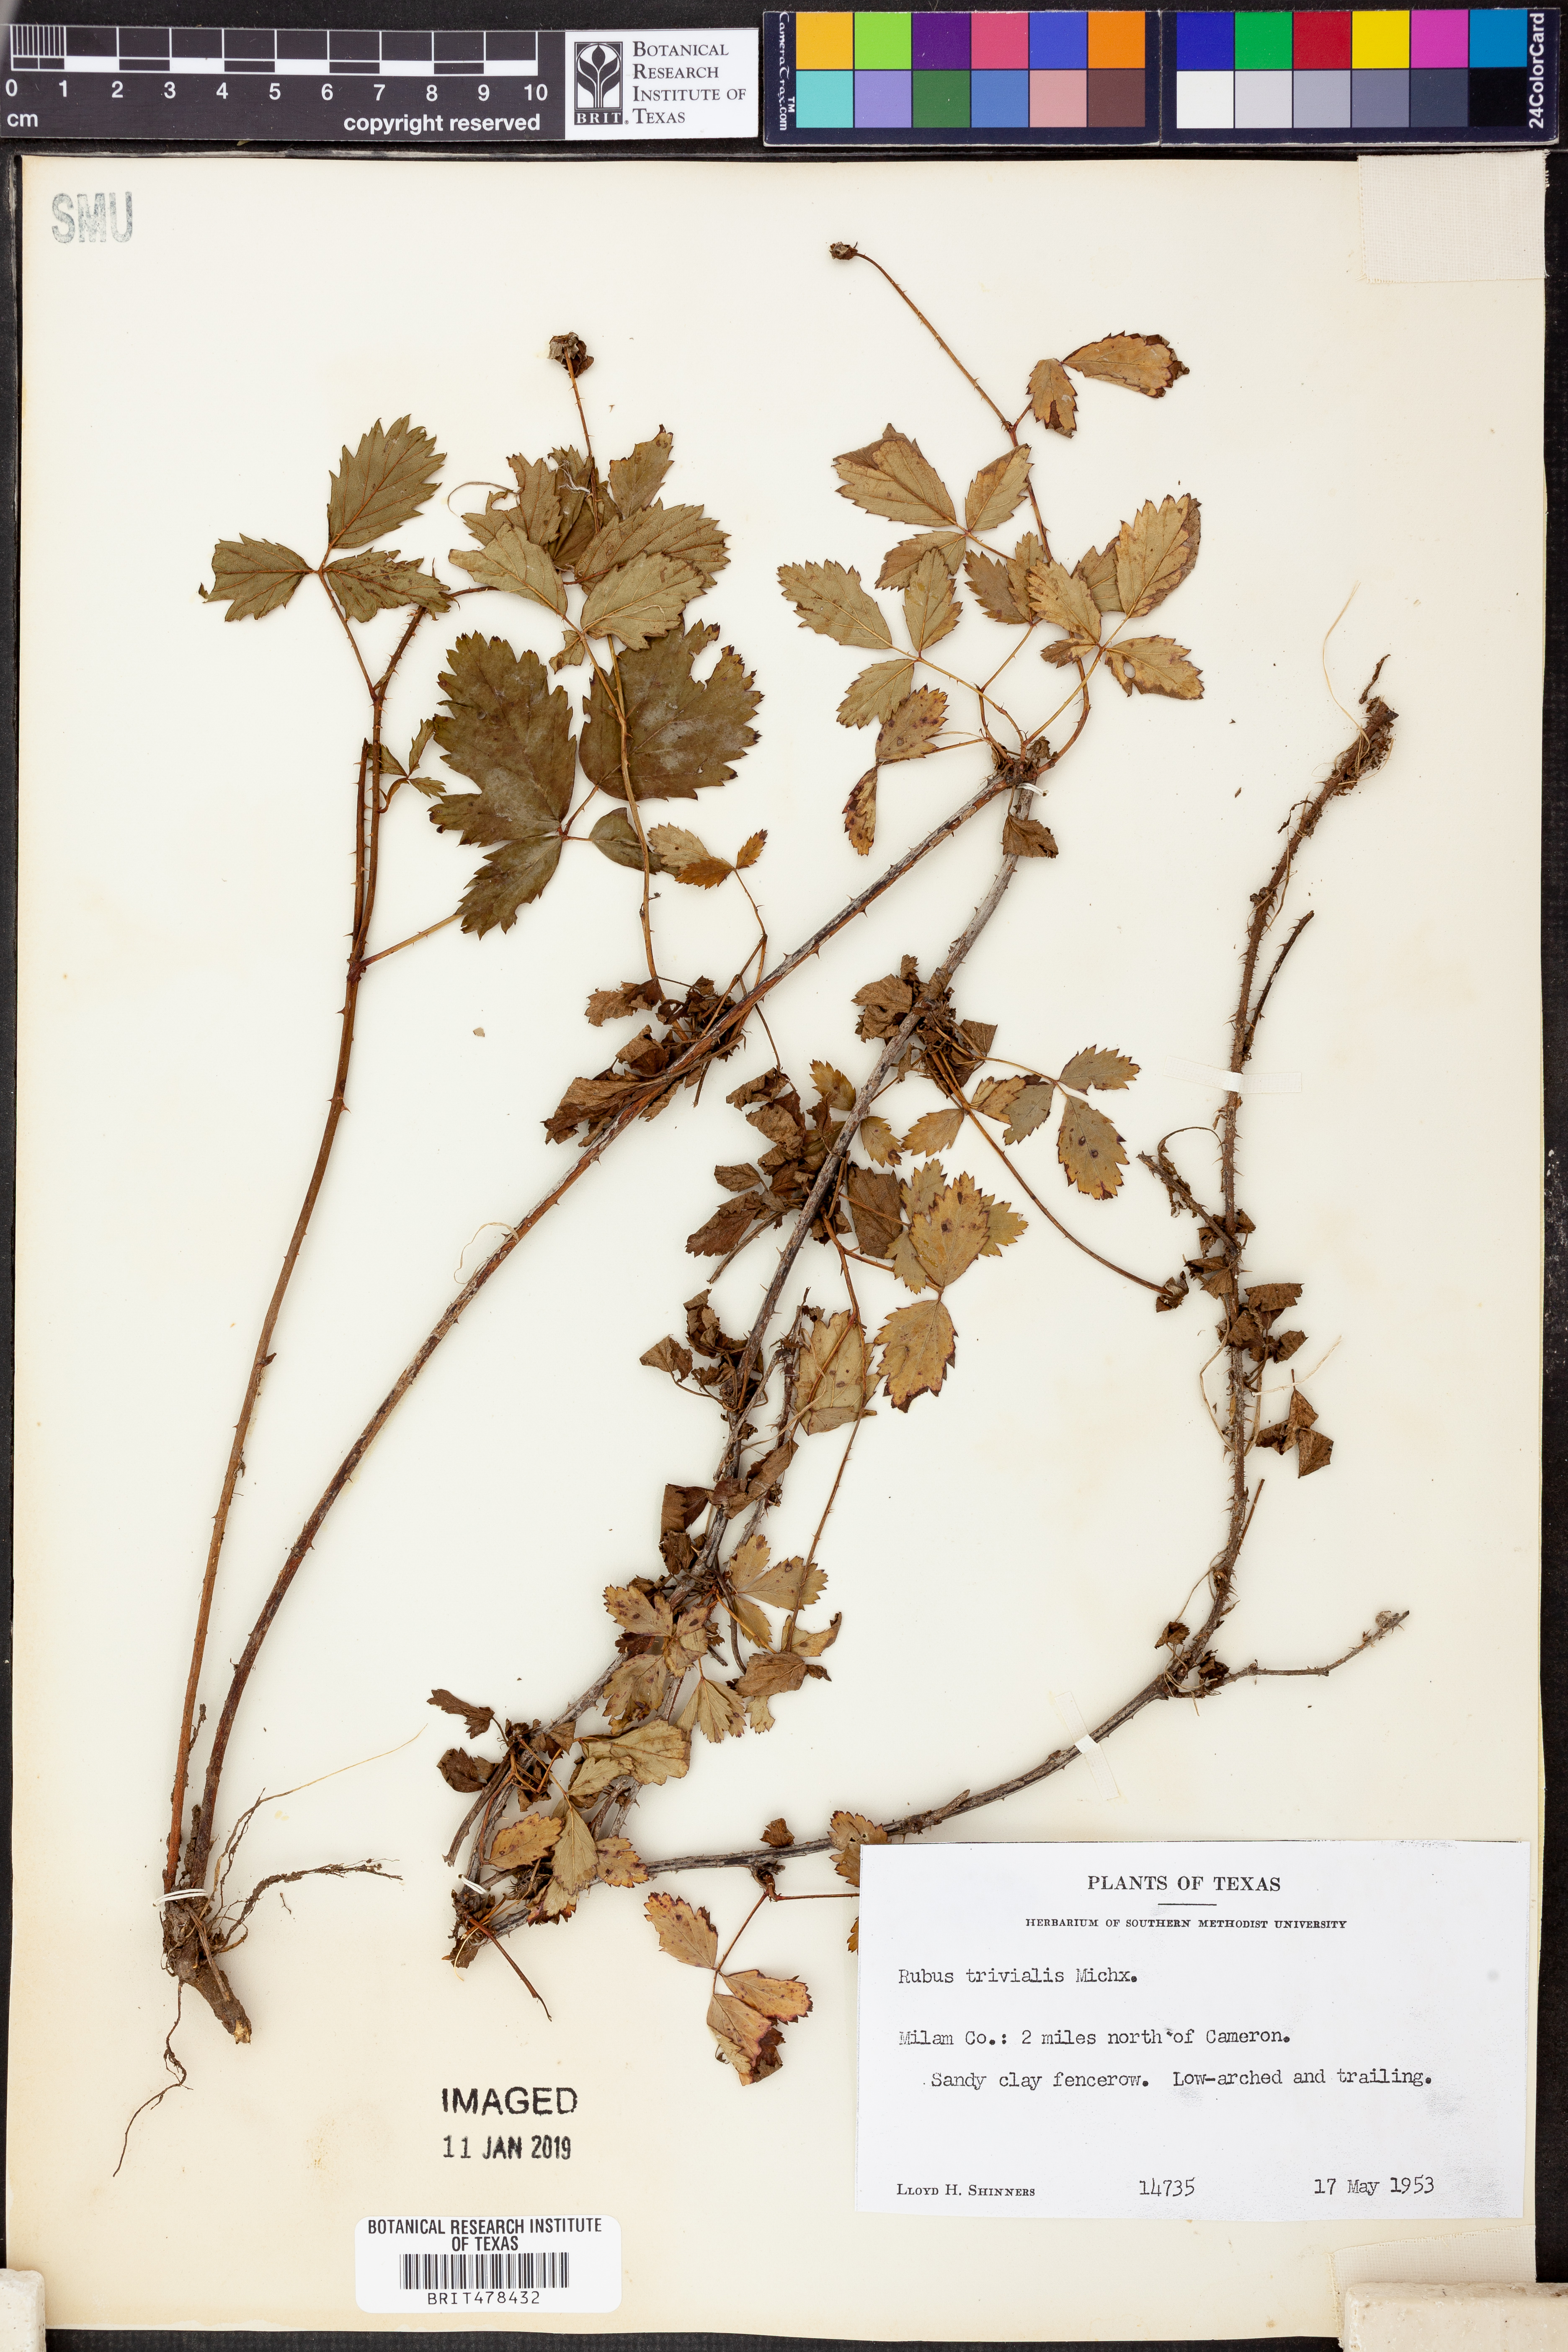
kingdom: Plantae
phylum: Tracheophyta
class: Magnoliopsida
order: Rosales
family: Rosaceae
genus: Rubus
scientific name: Rubus trivialis
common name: Southern dewberry
